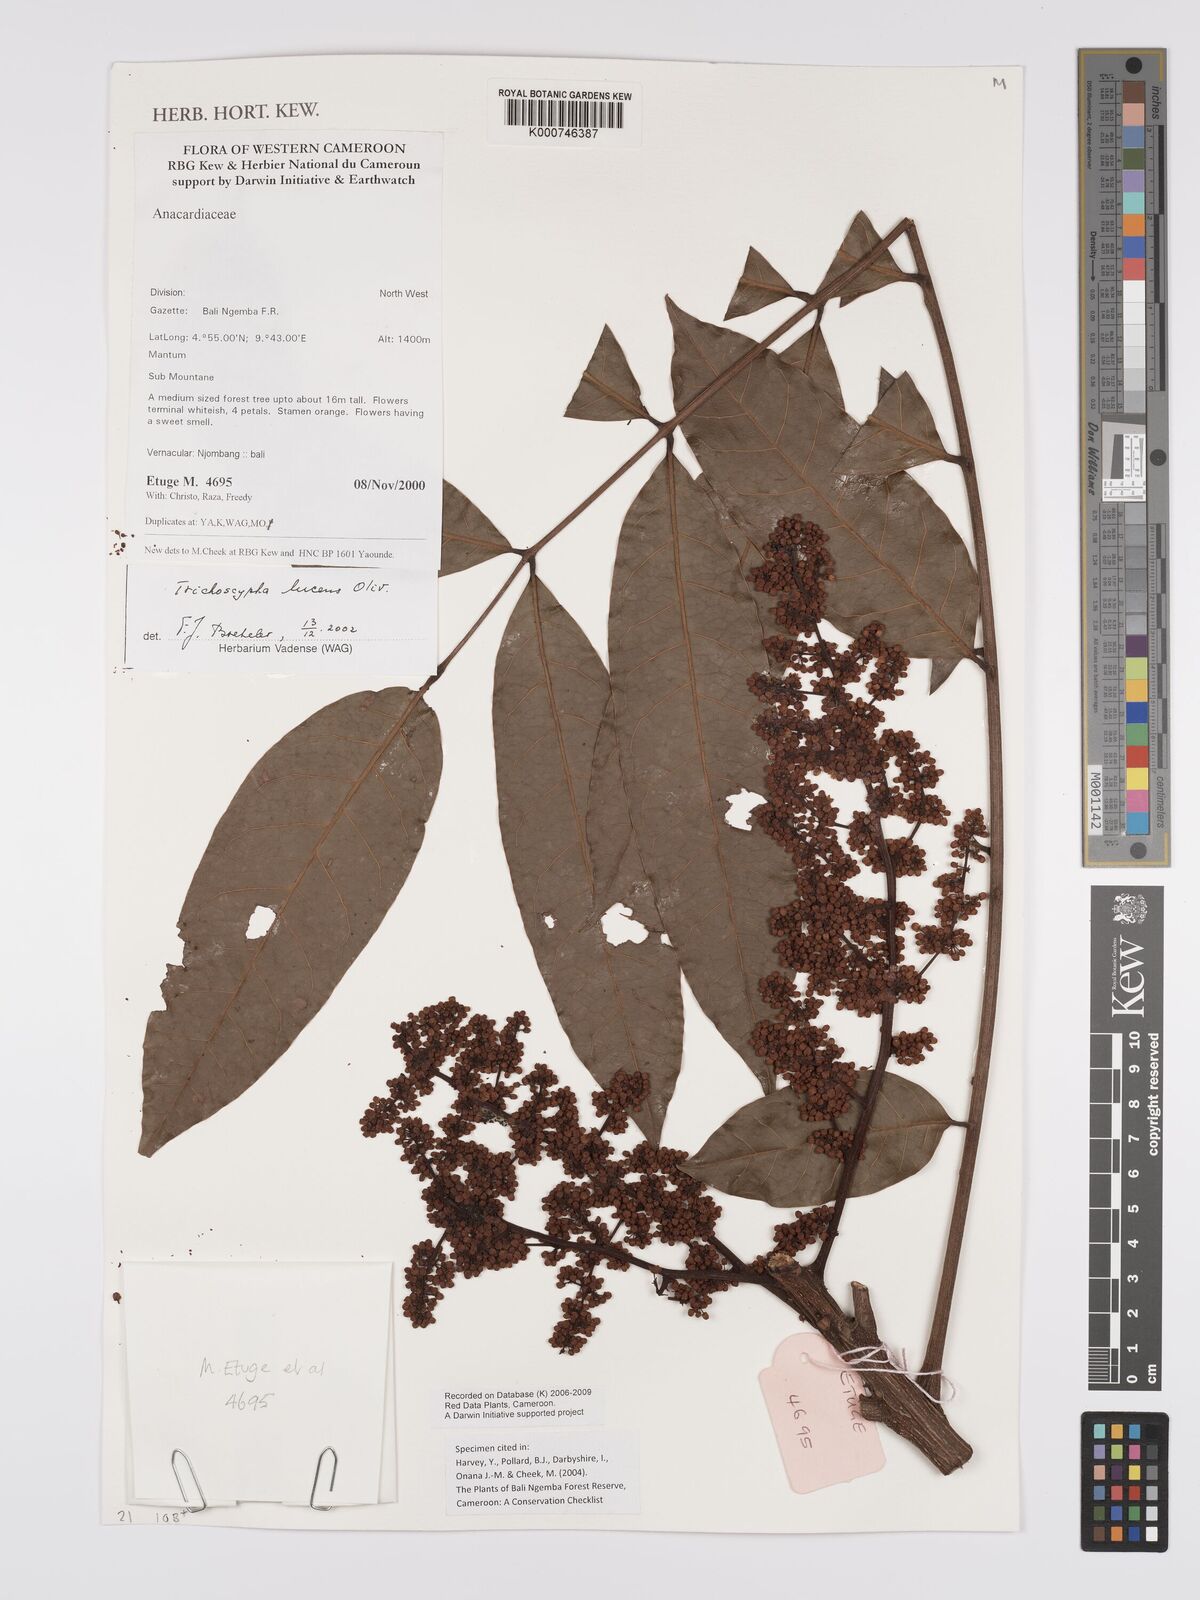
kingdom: Plantae
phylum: Tracheophyta
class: Magnoliopsida
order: Sapindales
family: Anacardiaceae
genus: Trichoscypha
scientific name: Trichoscypha lucens
